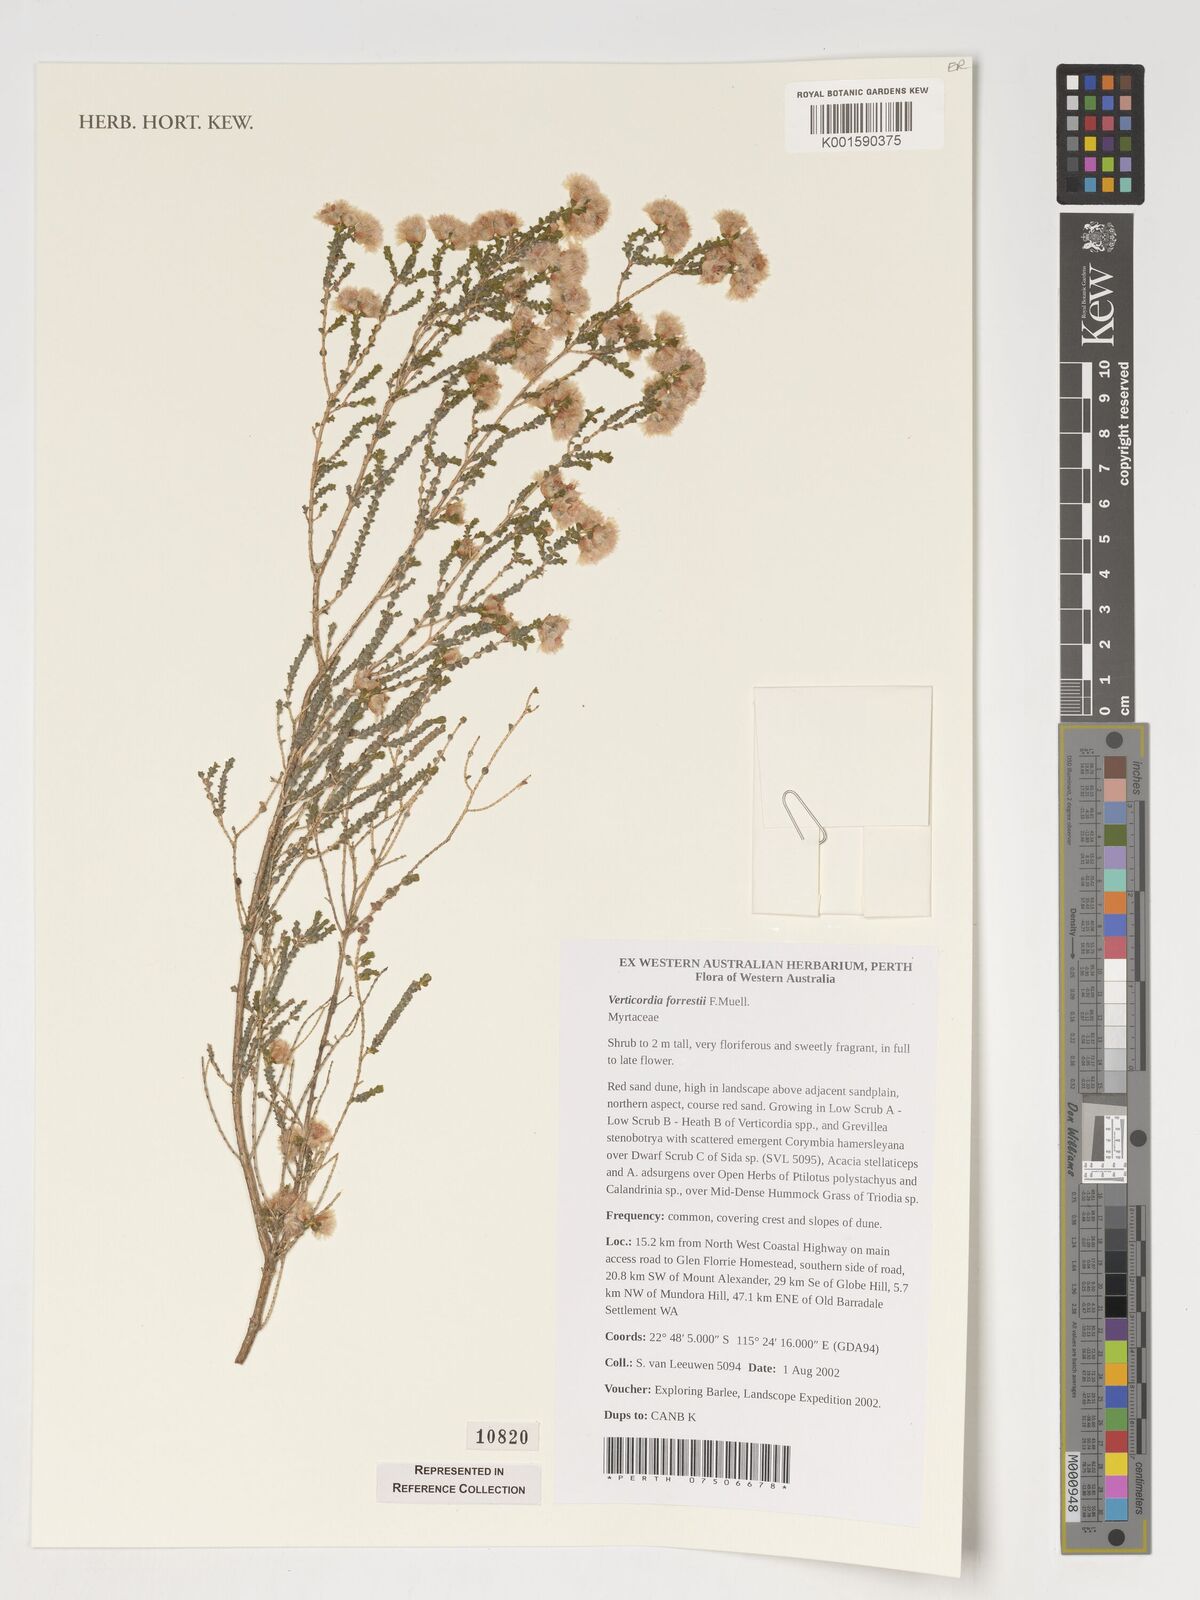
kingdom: Plantae
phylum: Tracheophyta
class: Magnoliopsida
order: Myrtales
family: Myrtaceae
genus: Verticordia
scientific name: Verticordia forrestii
